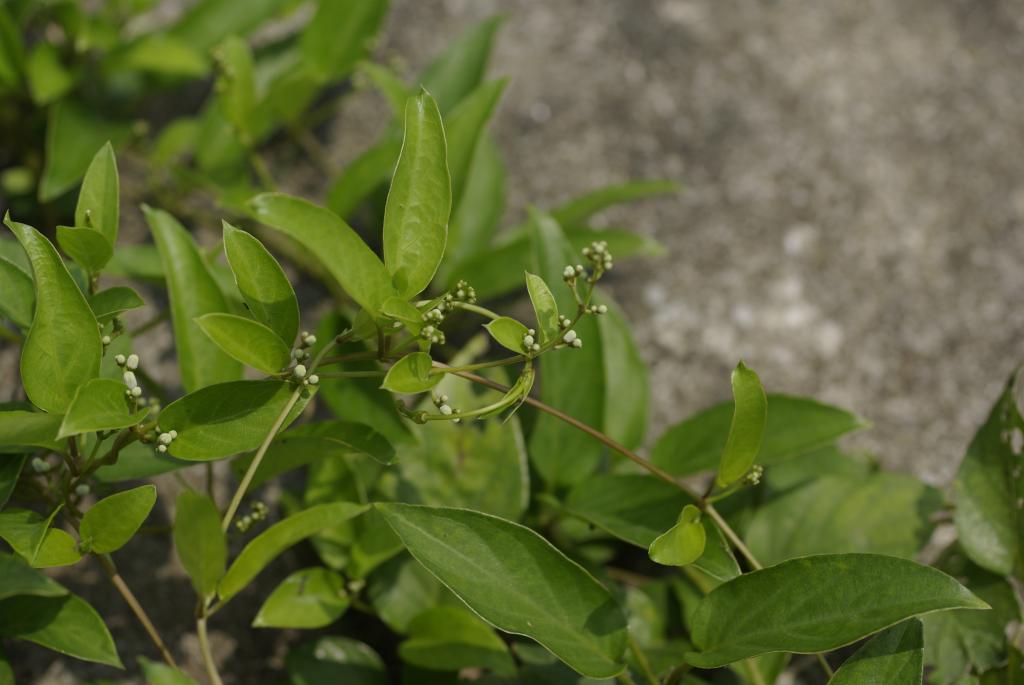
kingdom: Plantae
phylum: Tracheophyta
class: Magnoliopsida
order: Gentianales
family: Rubiaceae
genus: Paederia
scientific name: Paederia foetida
